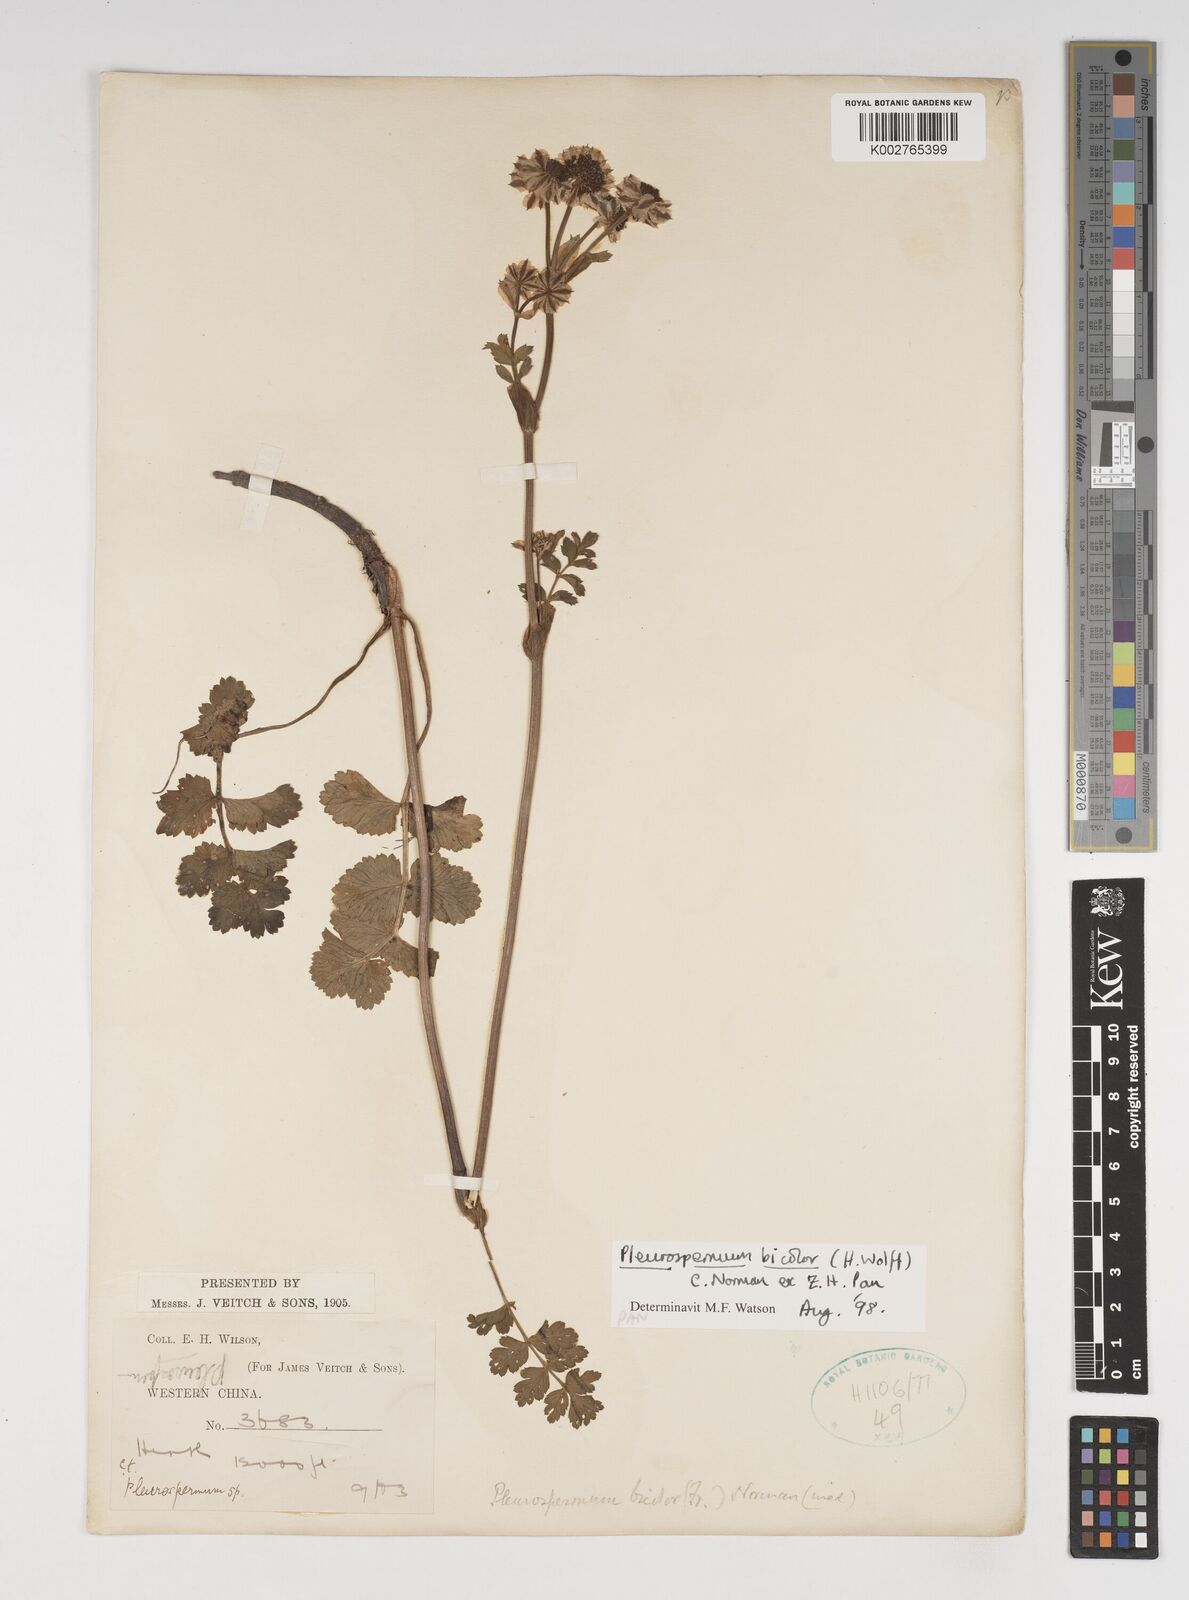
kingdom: Plantae
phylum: Tracheophyta
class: Magnoliopsida
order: Apiales
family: Apiaceae
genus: Pleurospermopsis
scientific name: Pleurospermopsis bicolor
